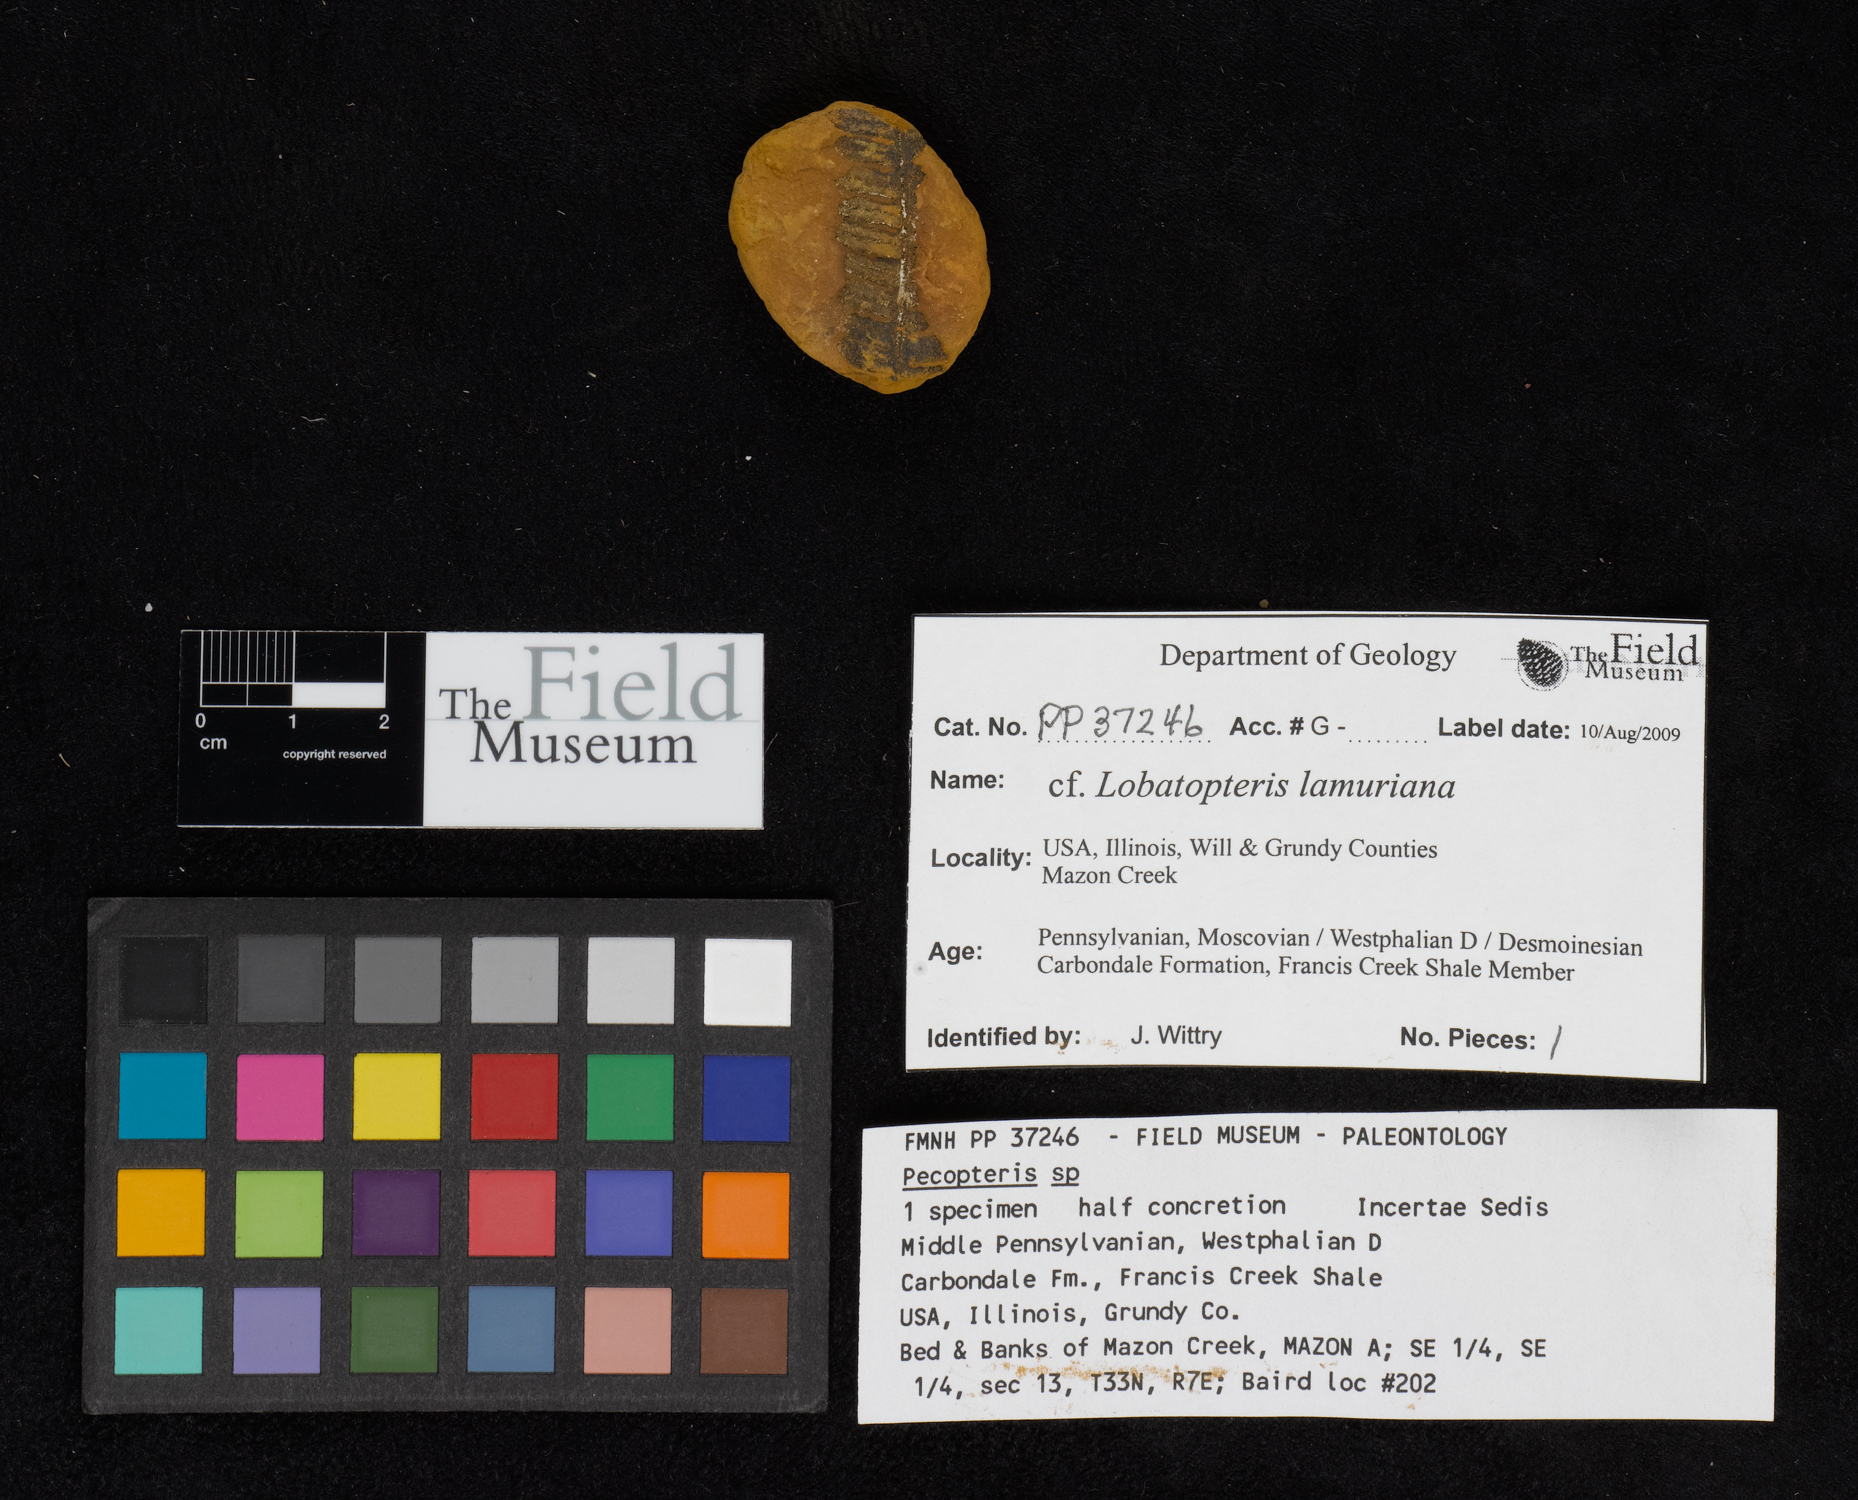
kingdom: Plantae
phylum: Tracheophyta
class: Polypodiopsida
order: Marattiales
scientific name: Marattiales
